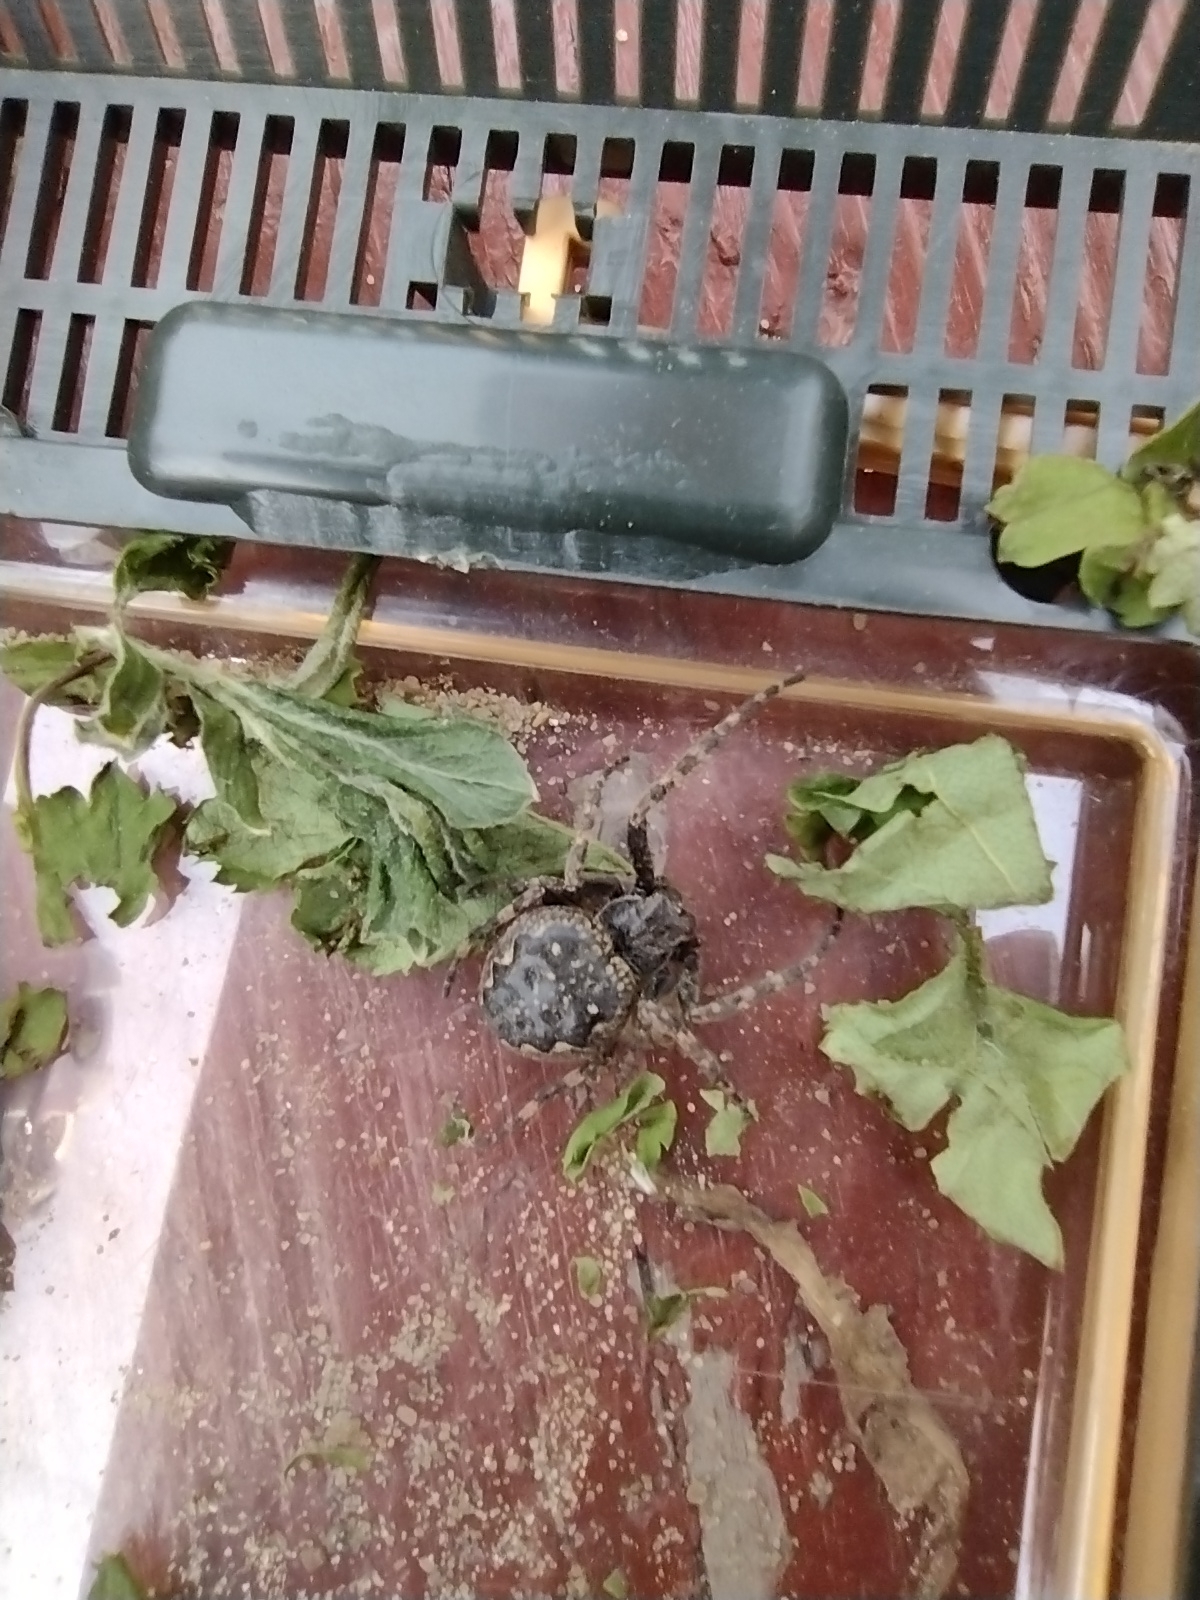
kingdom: Animalia
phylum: Arthropoda
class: Arachnida
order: Araneae
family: Araneidae
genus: Nuctenea
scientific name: Nuctenea umbratica
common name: Flad hjulspinder
